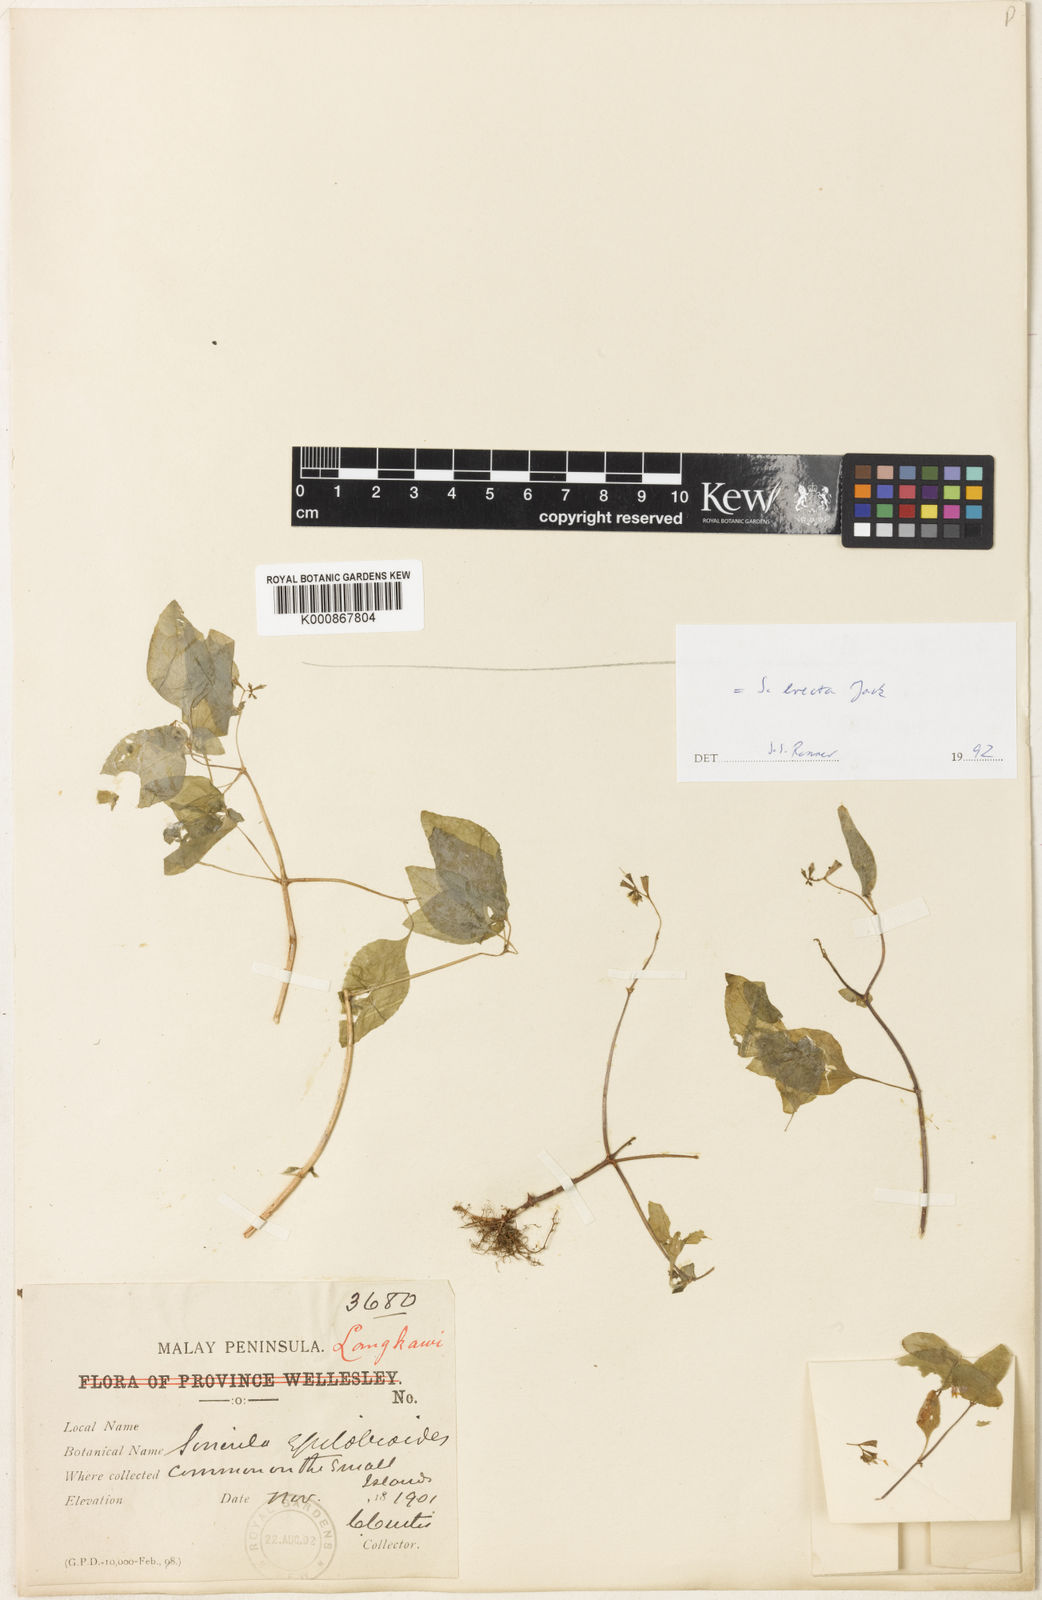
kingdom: Plantae
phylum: Tracheophyta
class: Magnoliopsida
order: Myrtales
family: Melastomataceae
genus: Sonerila
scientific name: Sonerila erecta
